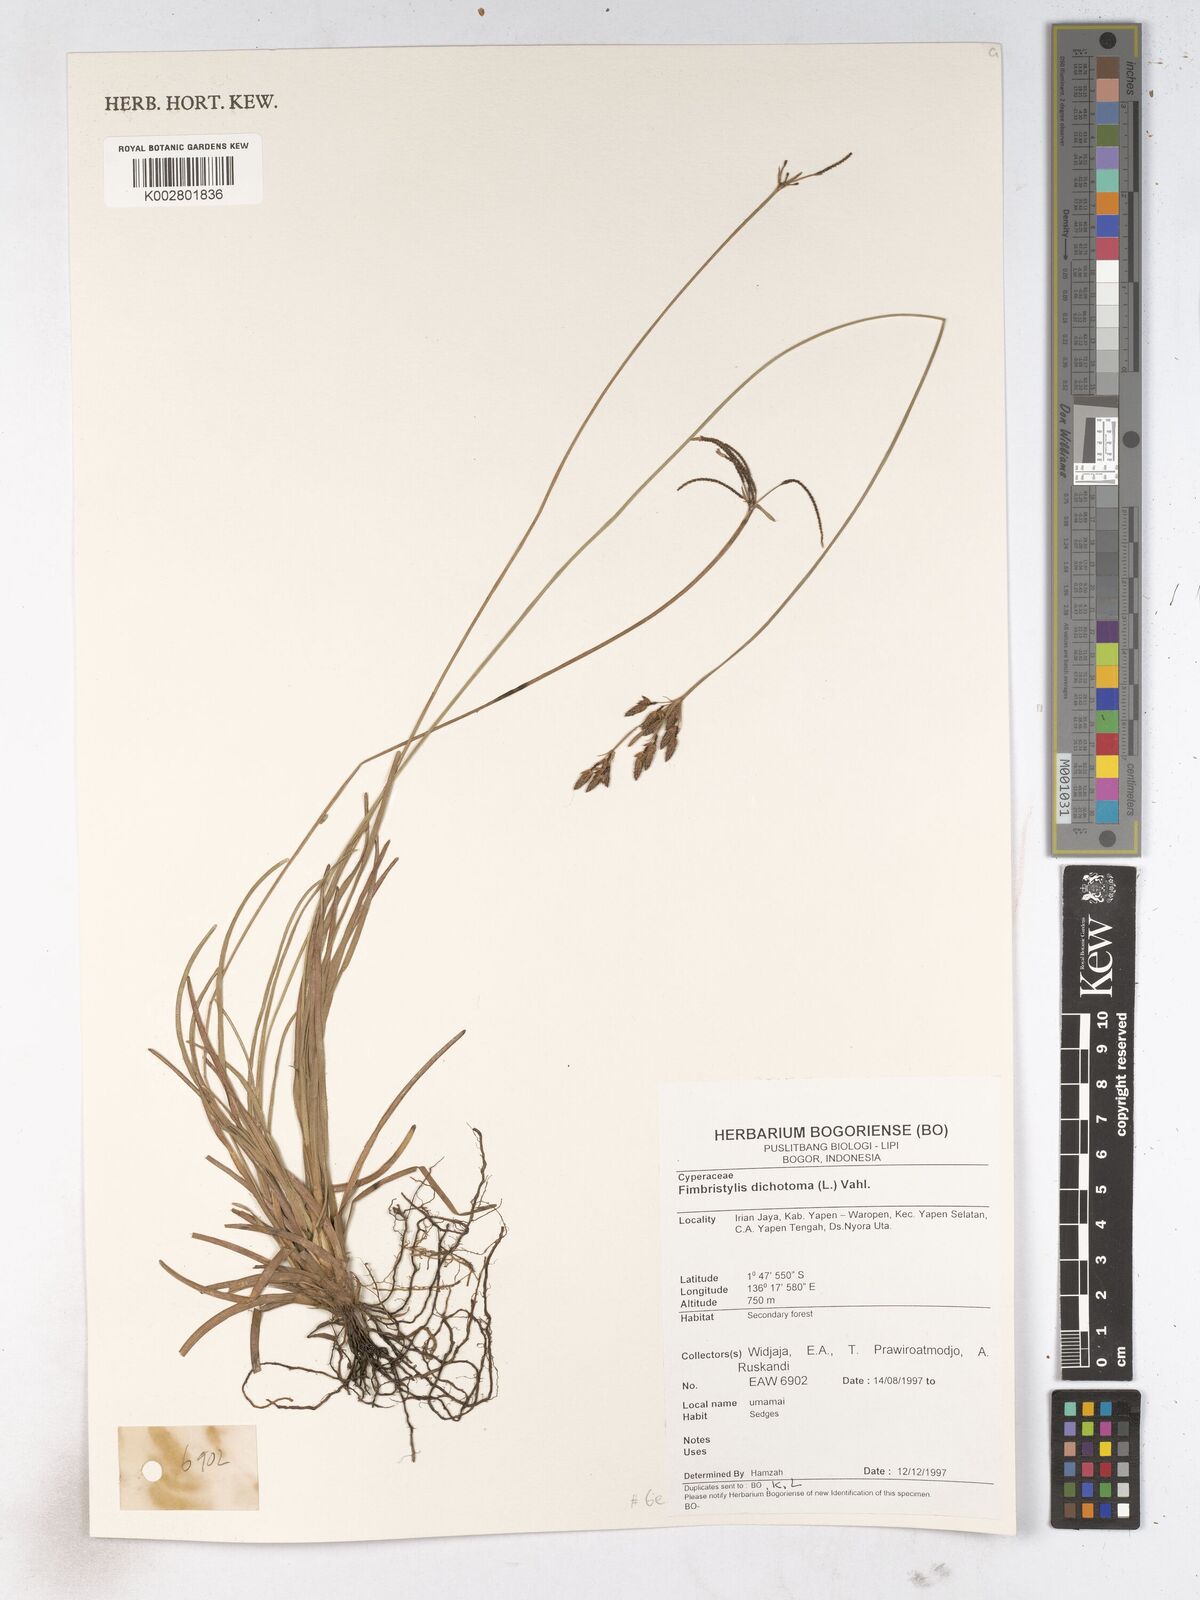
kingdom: Plantae
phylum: Tracheophyta
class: Liliopsida
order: Poales
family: Cyperaceae
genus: Fimbristylis
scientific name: Fimbristylis dichotoma
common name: Forked fimbry
